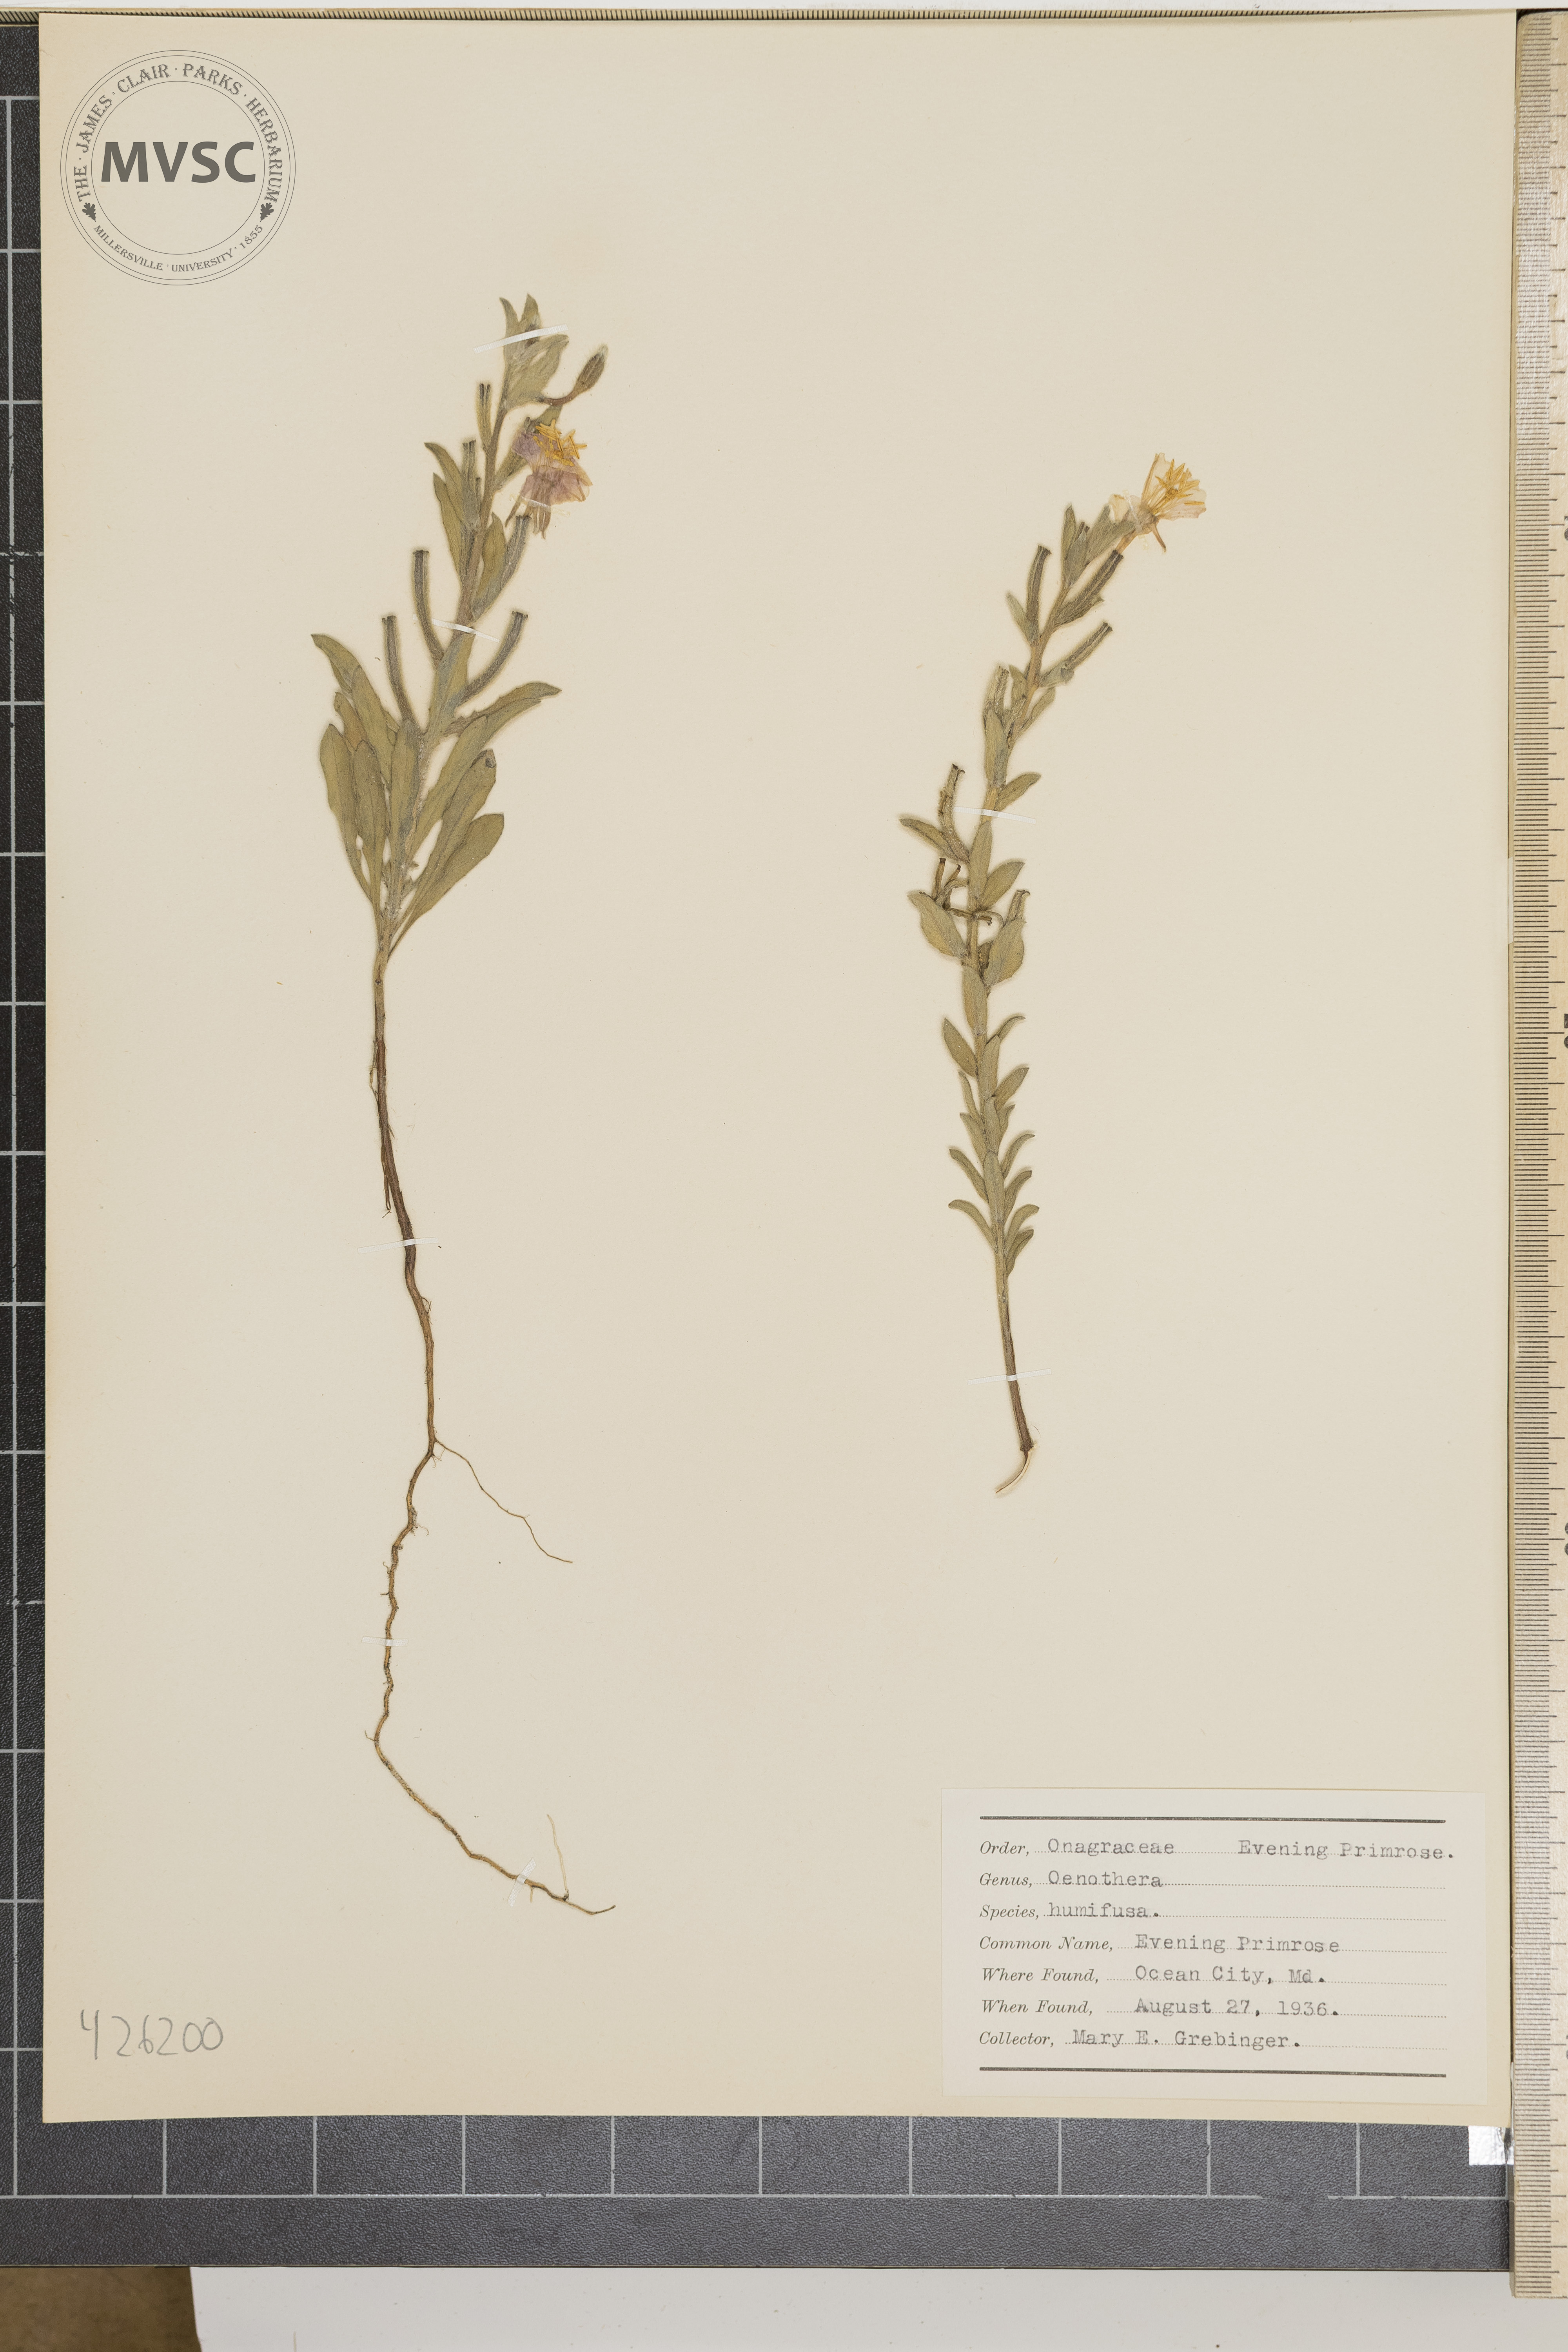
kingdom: Plantae
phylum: Tracheophyta
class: Magnoliopsida
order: Myrtales
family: Onagraceae
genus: Oenothera
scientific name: Oenothera humifusa
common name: Evening primrose
